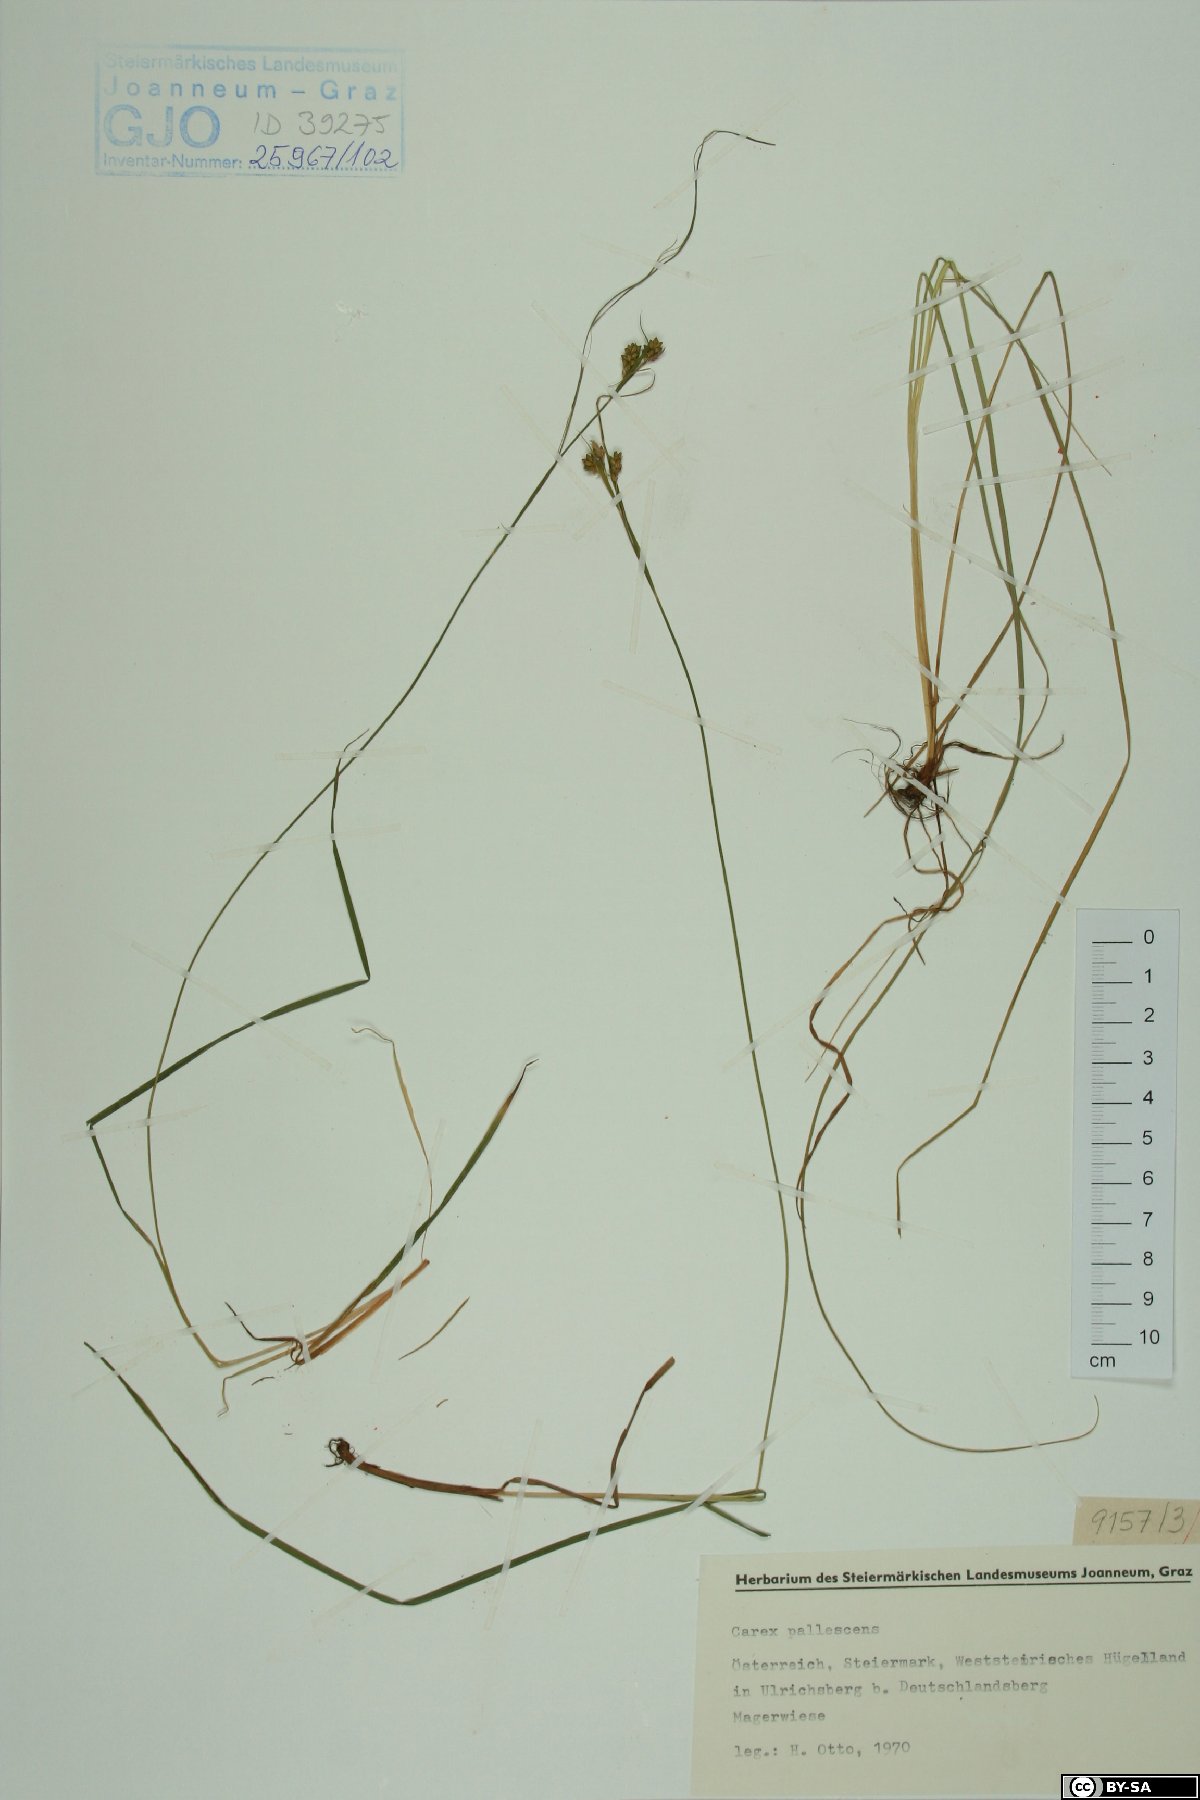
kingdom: Plantae
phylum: Tracheophyta
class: Liliopsida
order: Poales
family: Cyperaceae
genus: Carex
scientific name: Carex pallescens
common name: Pale sedge
